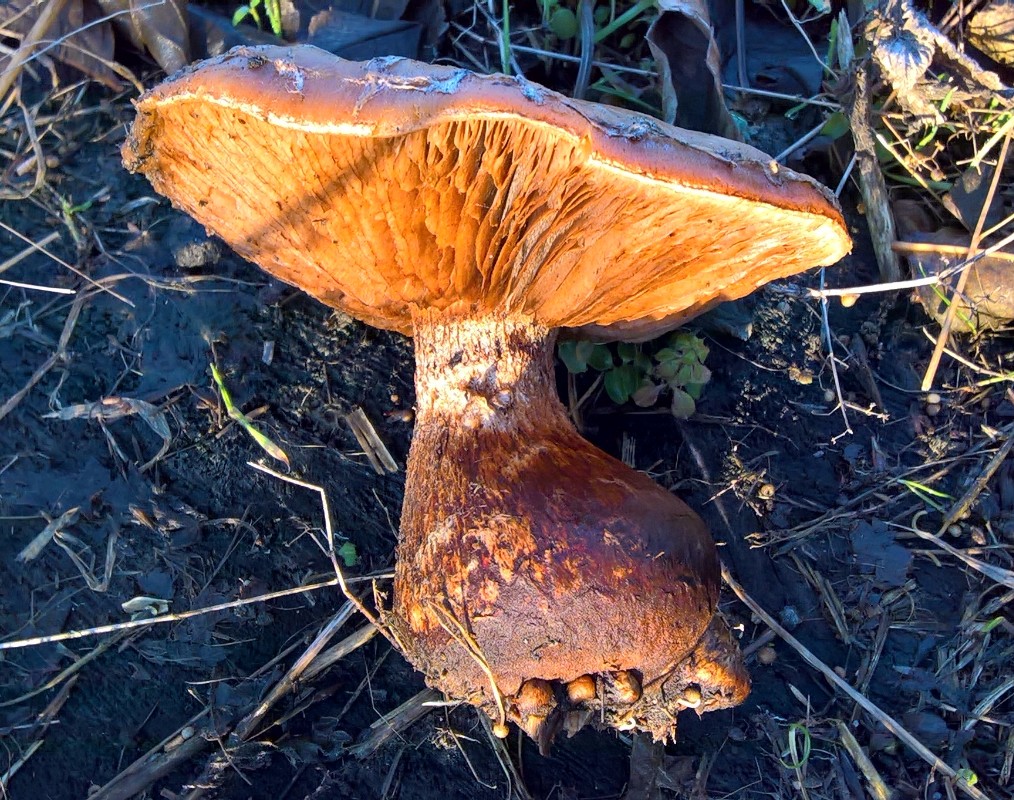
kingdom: Fungi
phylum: Basidiomycota
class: Agaricomycetes
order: Agaricales
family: Strophariaceae
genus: Pholiota
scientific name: Pholiota populnea
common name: poppel-kæmpeskælhat
